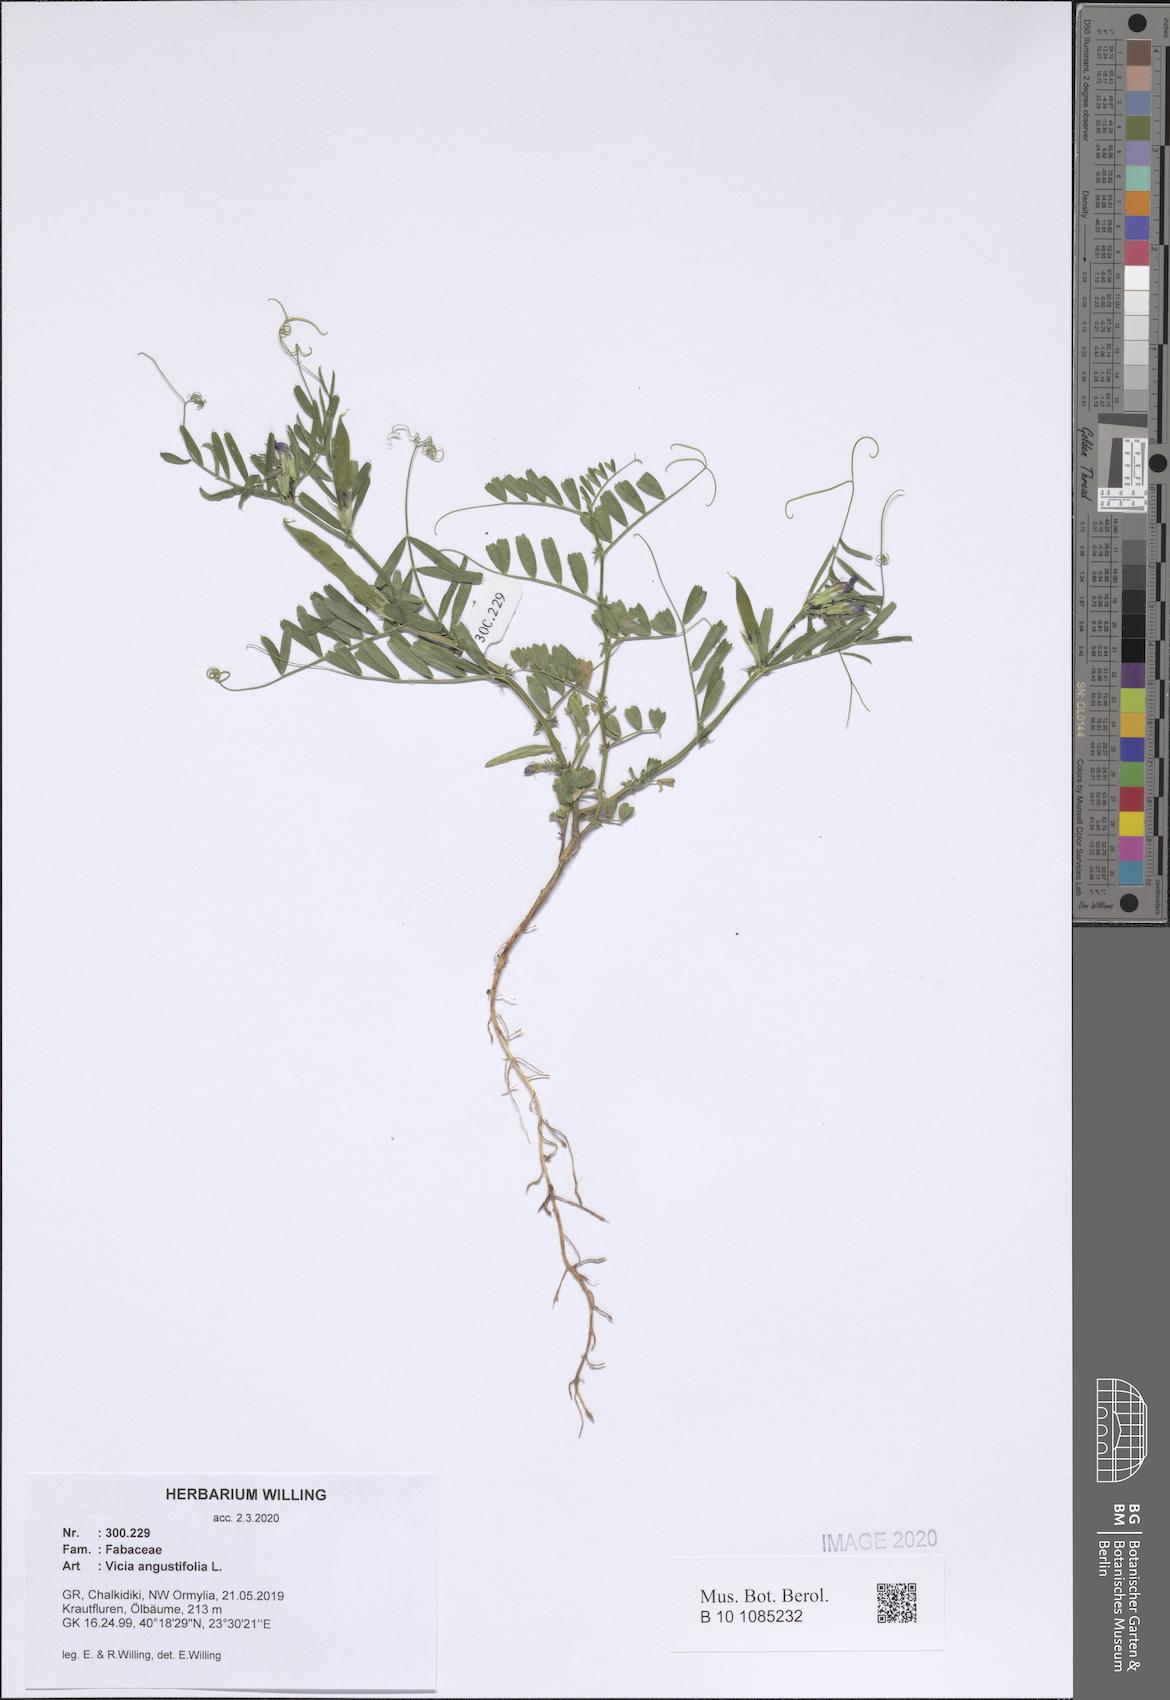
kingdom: Plantae
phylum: Tracheophyta
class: Magnoliopsida
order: Fabales
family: Fabaceae
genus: Vicia
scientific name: Vicia sativa
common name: Garden vetch
